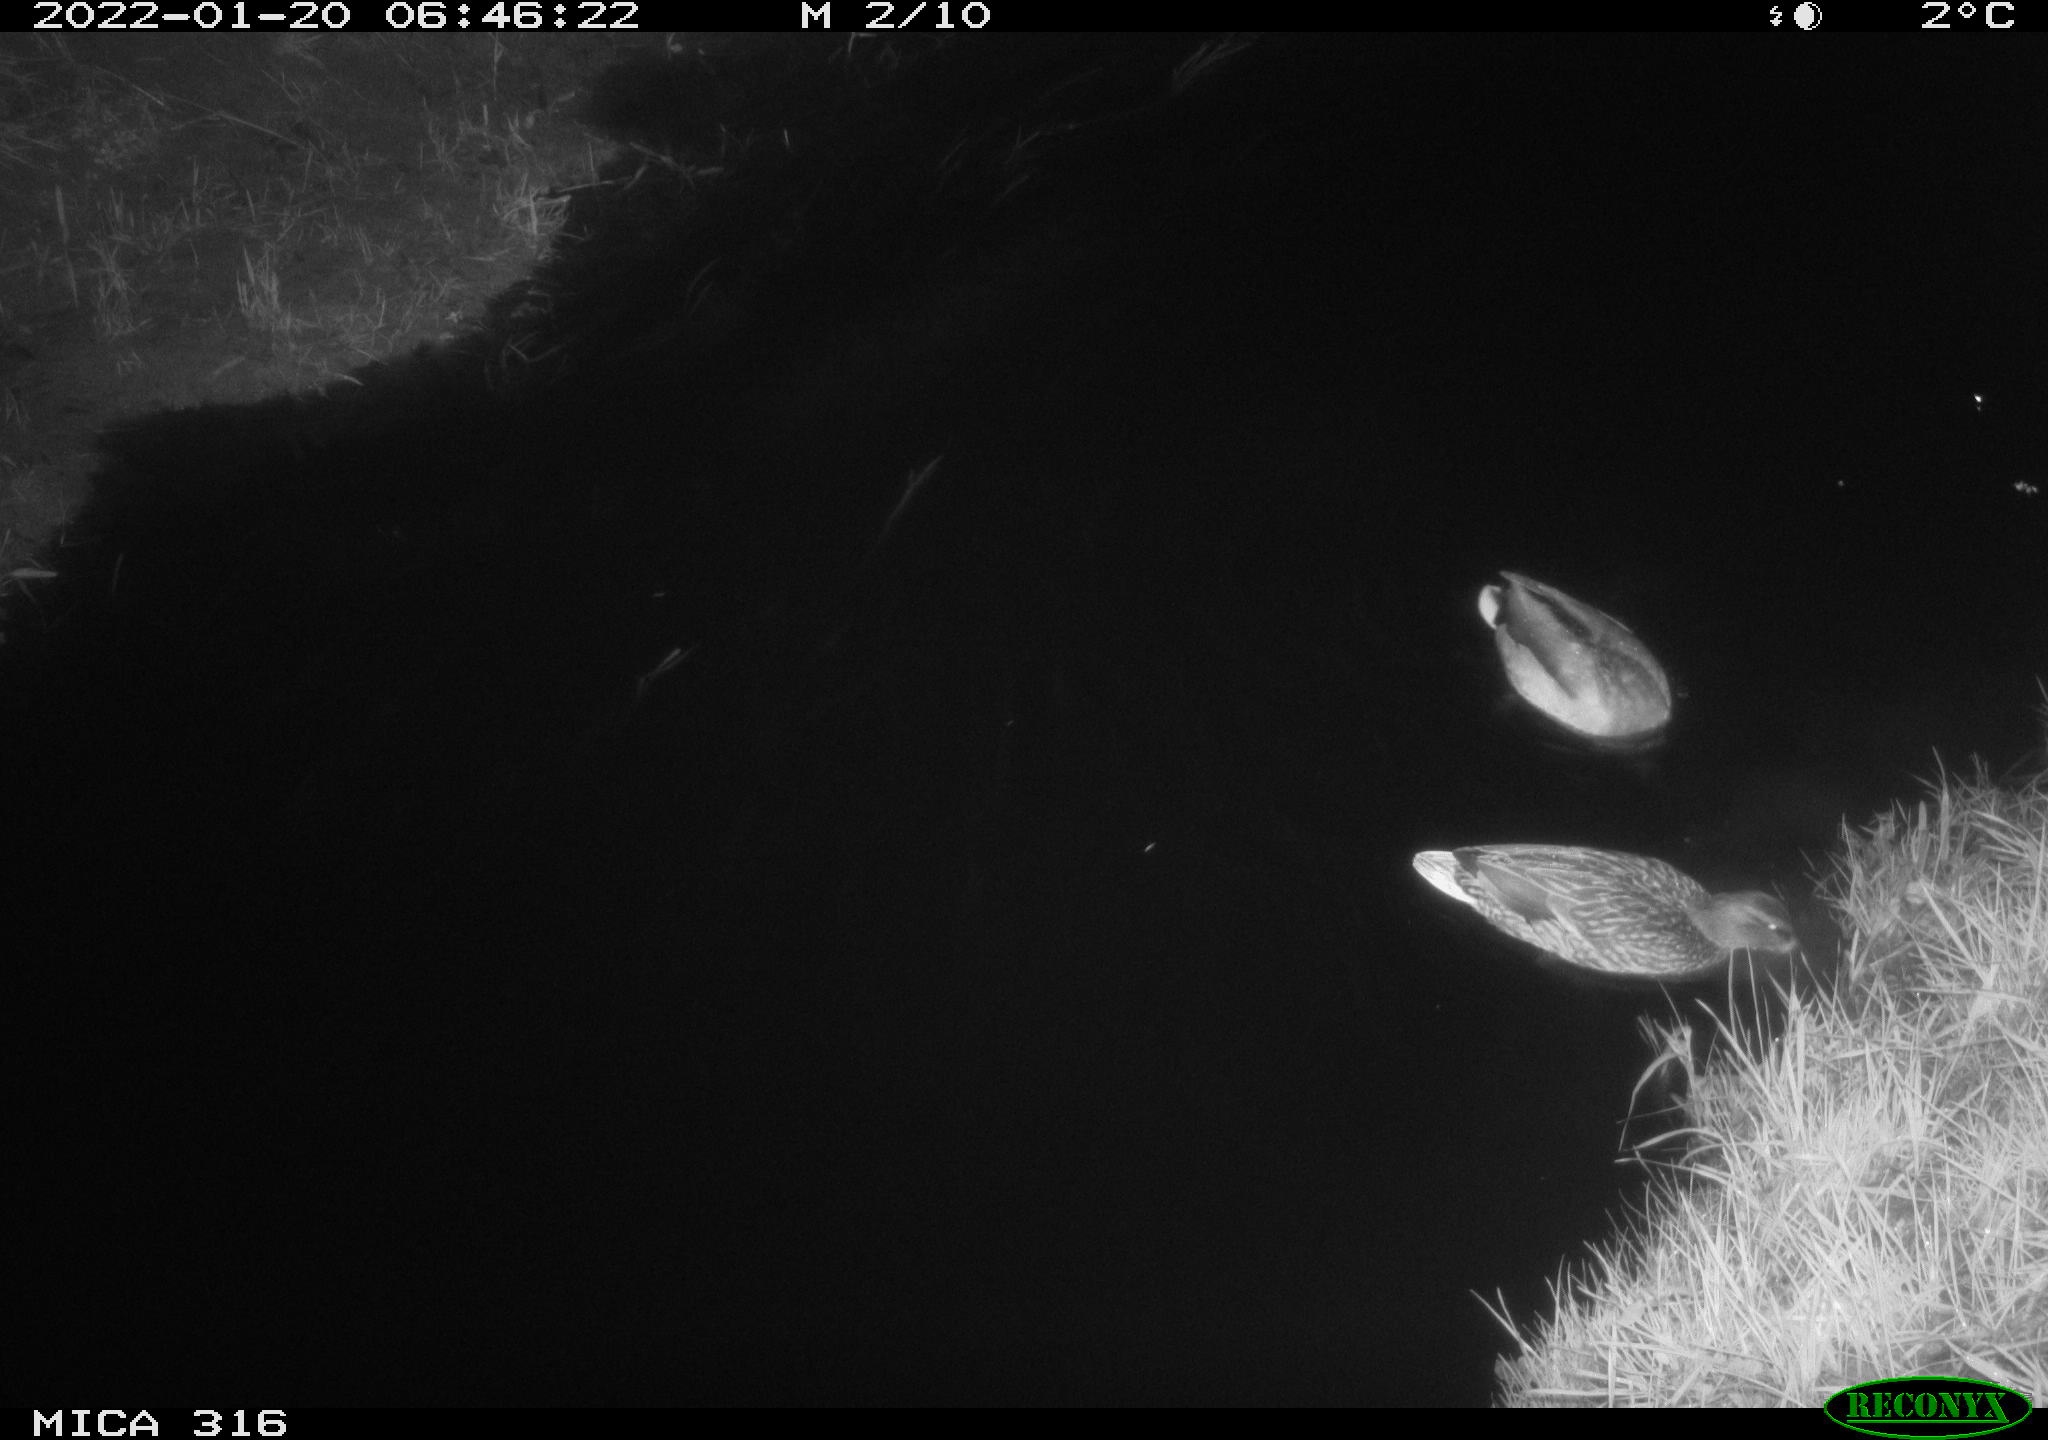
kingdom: Animalia
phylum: Chordata
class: Aves
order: Anseriformes
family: Anatidae
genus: Anas
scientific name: Anas platyrhynchos
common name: Mallard
